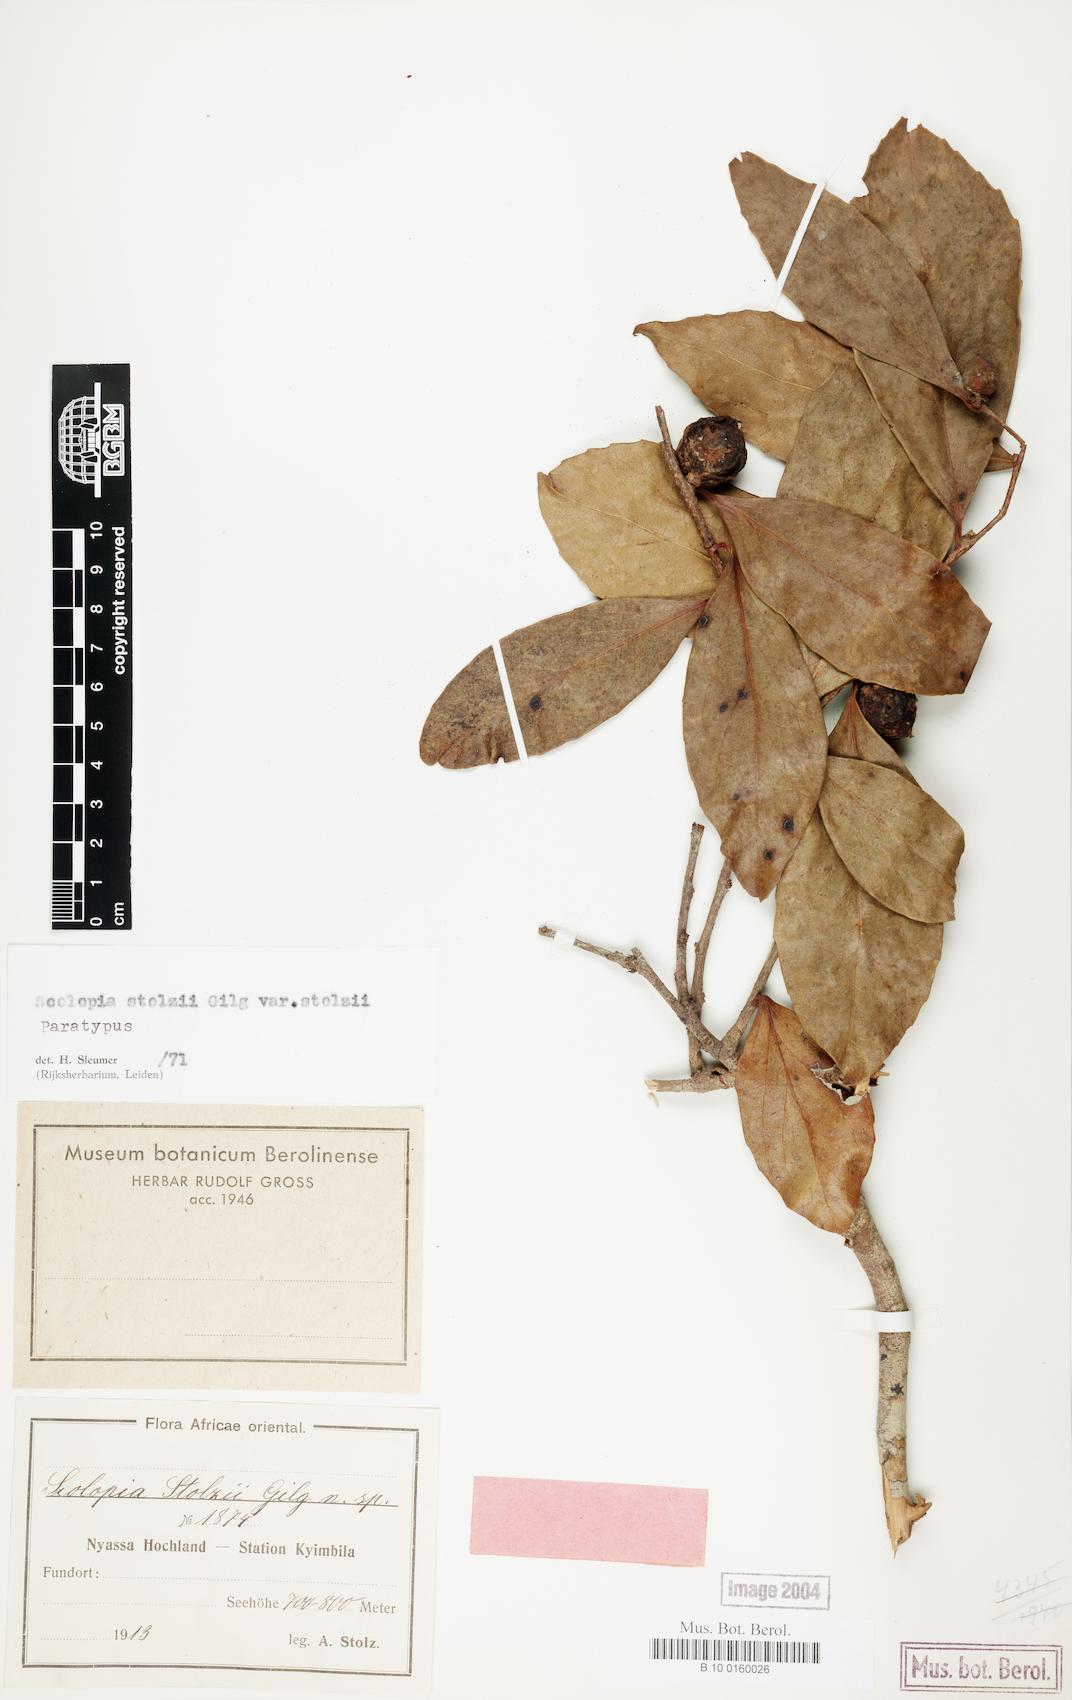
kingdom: Plantae
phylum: Tracheophyta
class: Magnoliopsida
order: Malpighiales
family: Salicaceae
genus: Scolopia
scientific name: Scolopia stolzii
